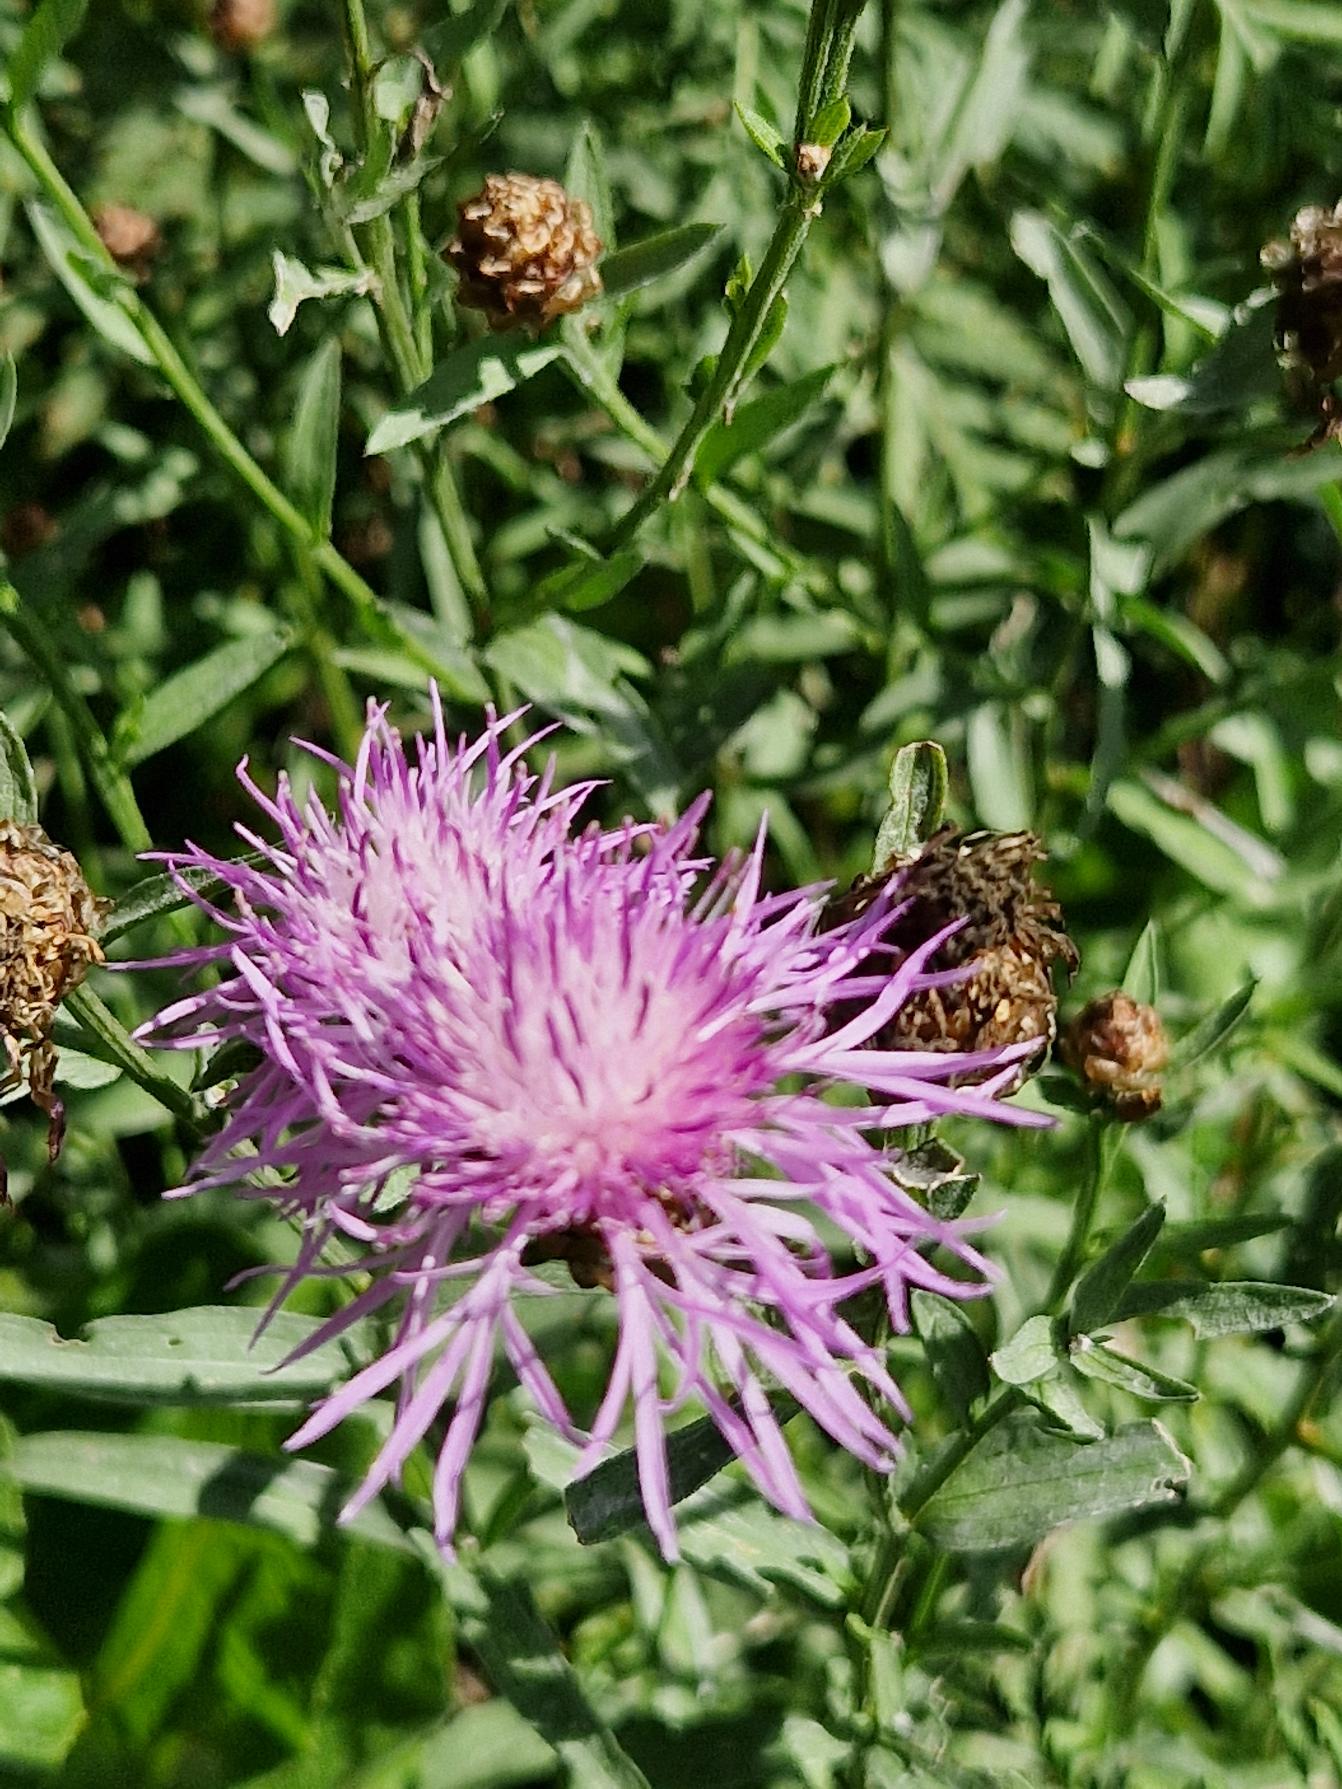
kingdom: Plantae
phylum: Tracheophyta
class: Magnoliopsida
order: Asterales
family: Asteraceae
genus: Centaurea
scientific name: Centaurea jacea
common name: Almindelig knopurt
